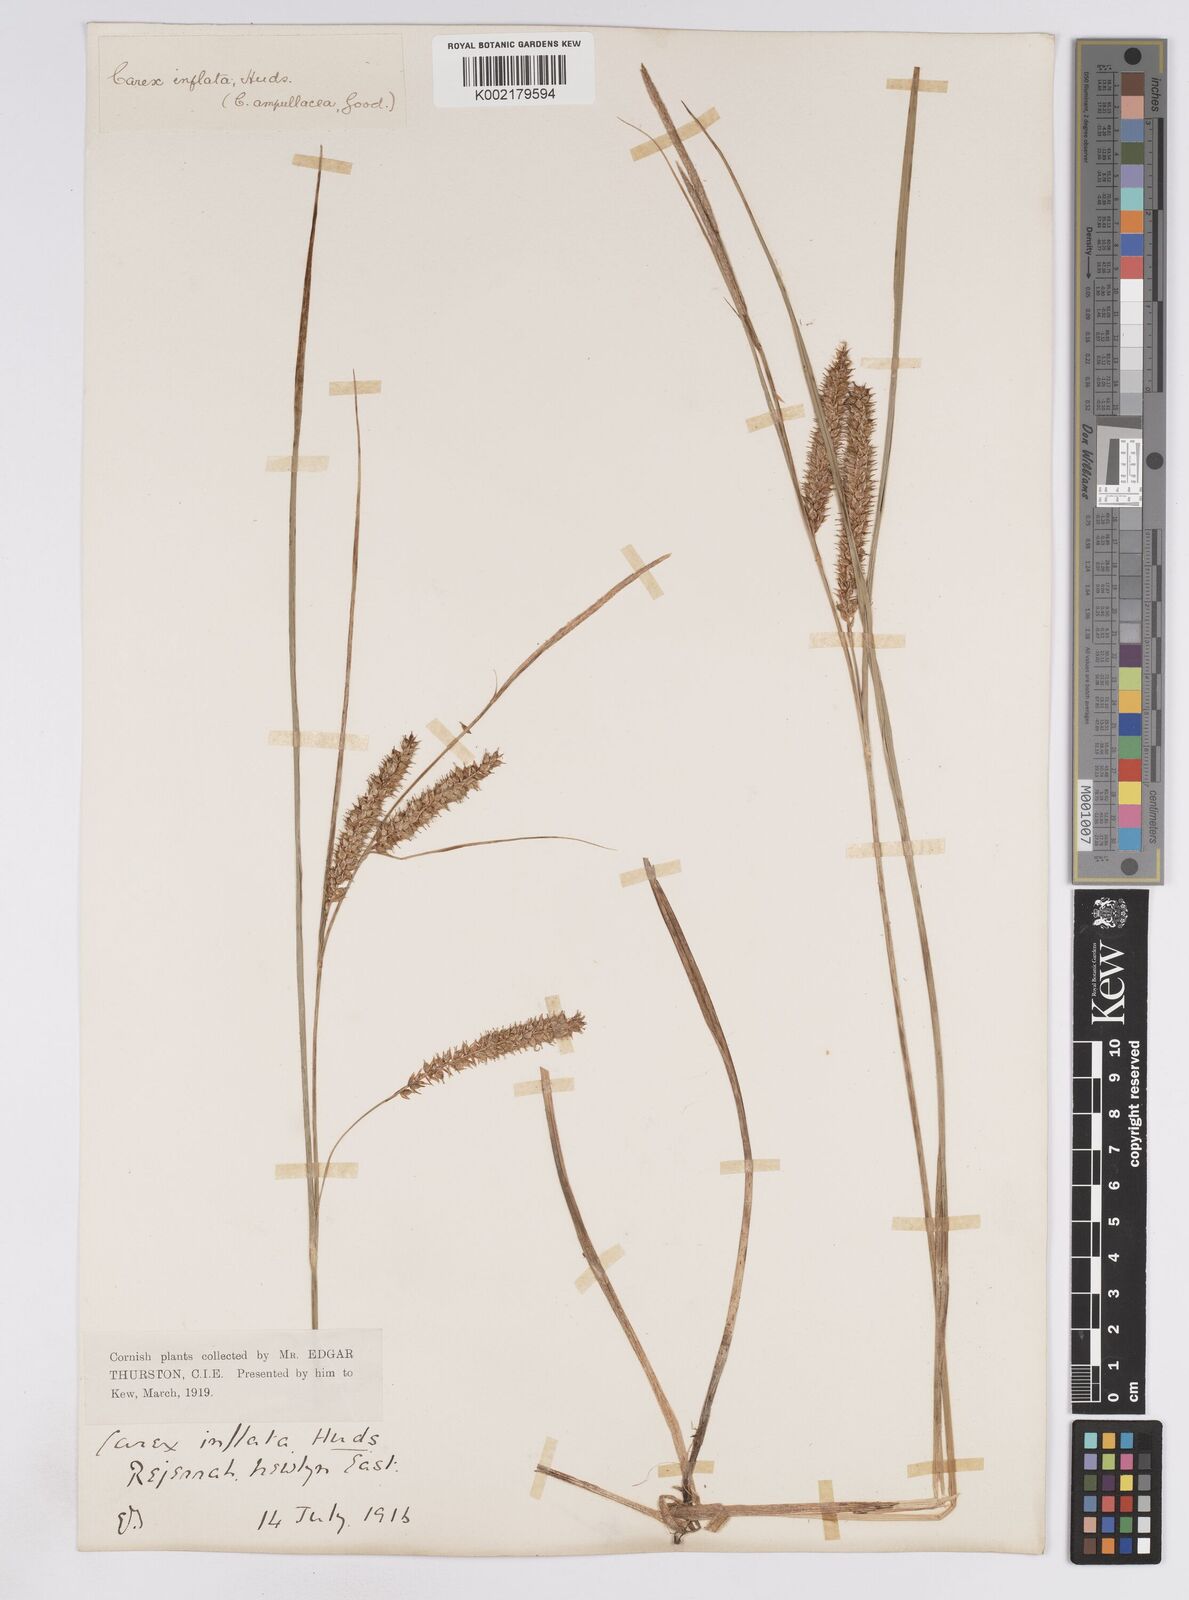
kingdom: Plantae
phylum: Tracheophyta
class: Liliopsida
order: Poales
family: Cyperaceae
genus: Carex
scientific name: Carex rostrata
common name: Bottle sedge
